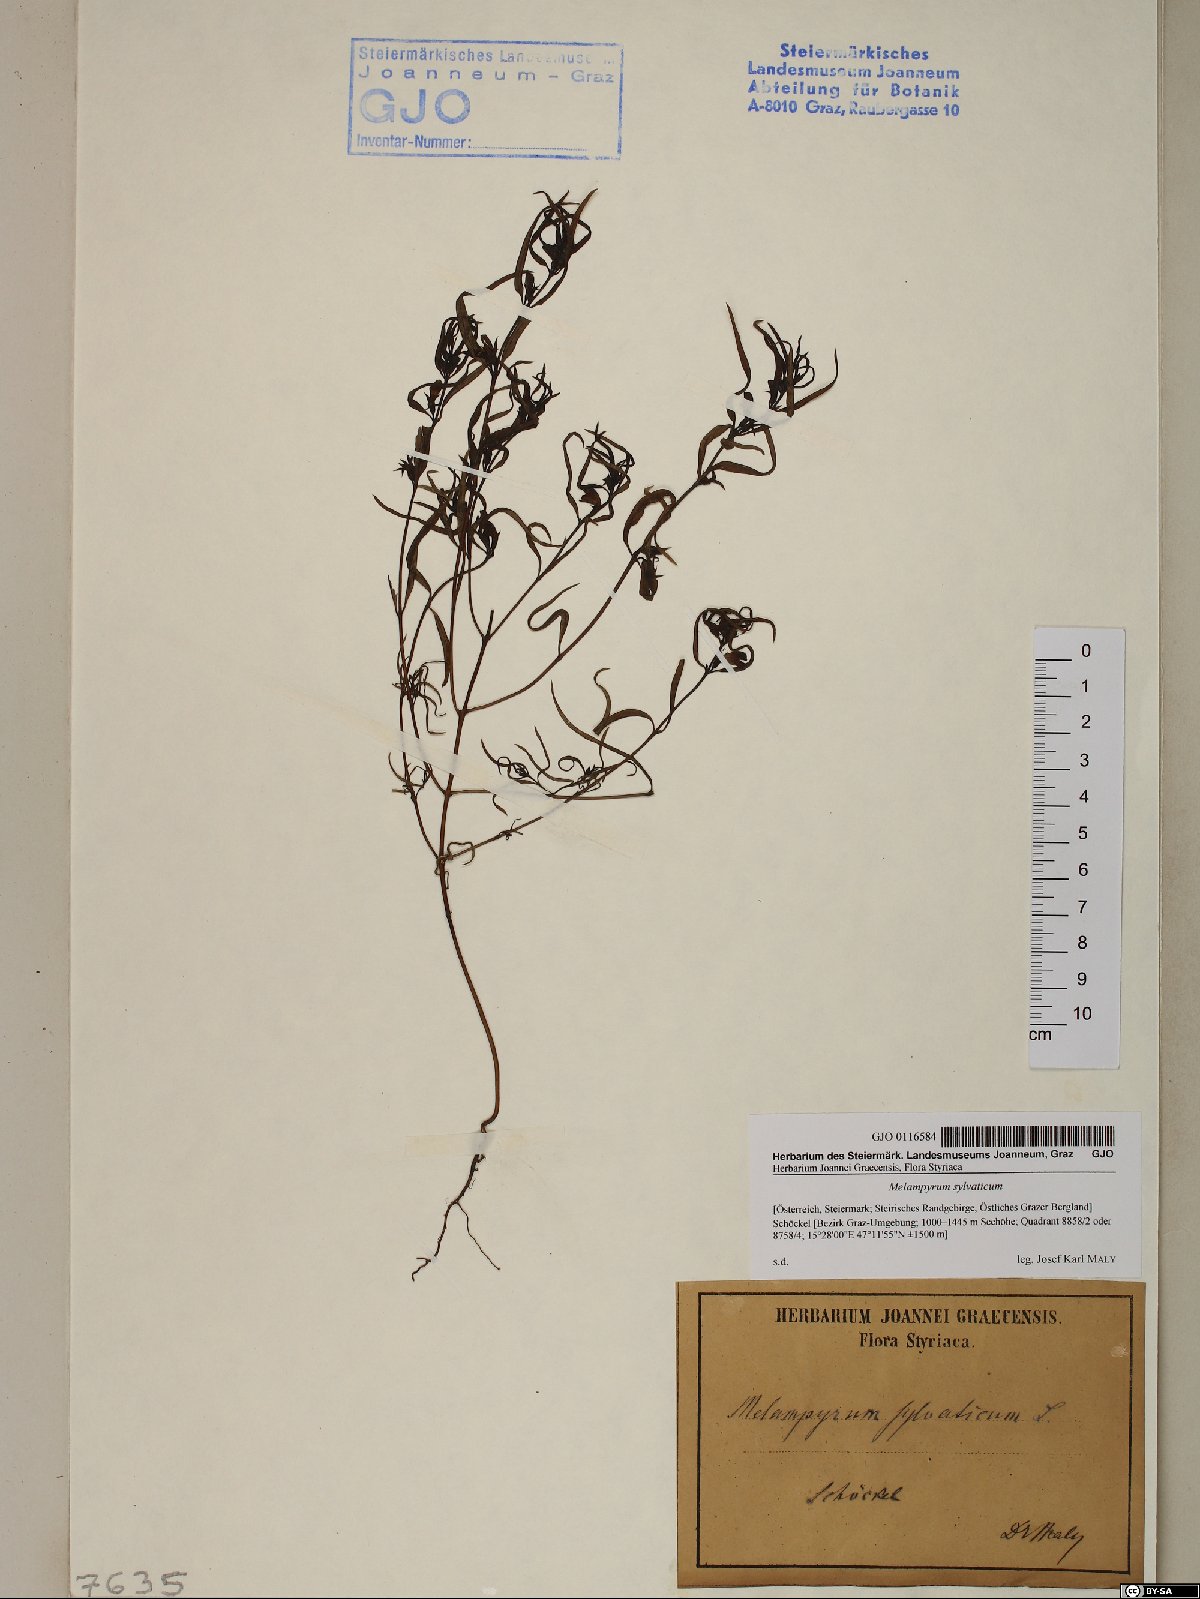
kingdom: Plantae
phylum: Tracheophyta
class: Magnoliopsida
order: Lamiales
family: Orobanchaceae
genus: Melampyrum
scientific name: Melampyrum sylvaticum
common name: Small cow-wheat
